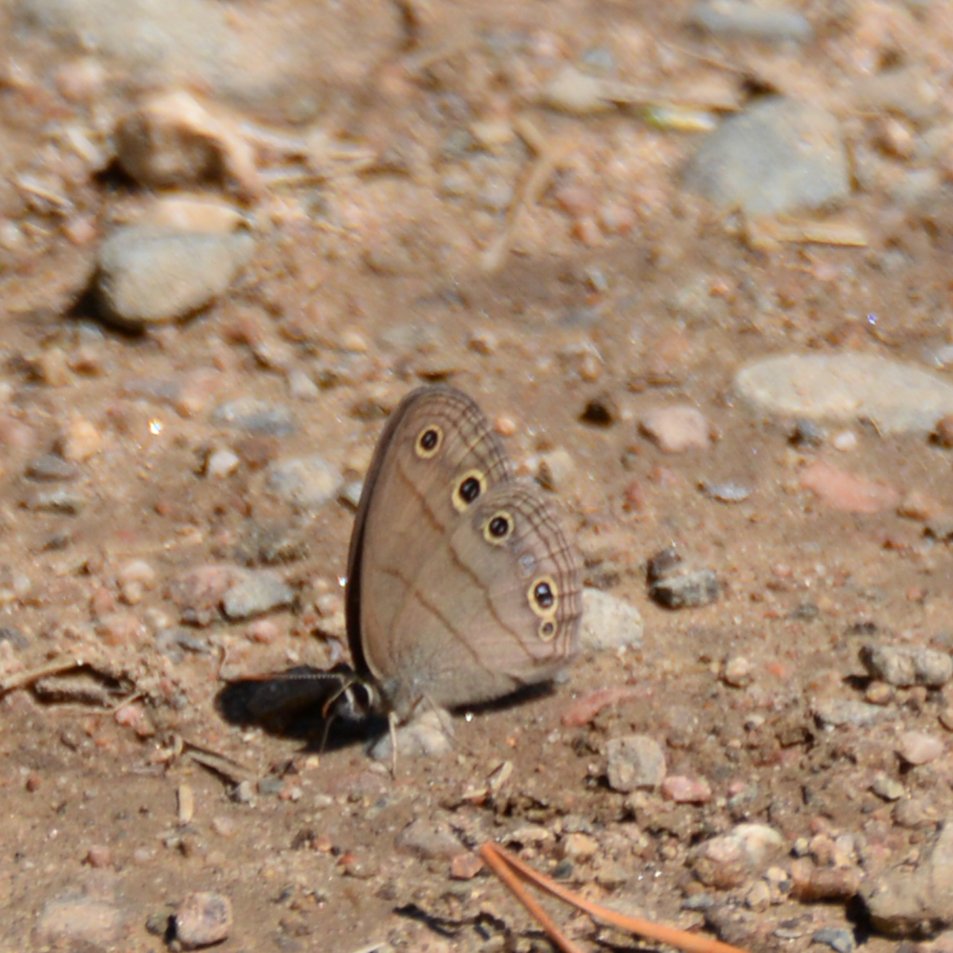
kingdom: Animalia
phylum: Arthropoda
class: Insecta
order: Lepidoptera
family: Nymphalidae
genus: Euptychia
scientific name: Euptychia cymela
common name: Little Wood Satyr
